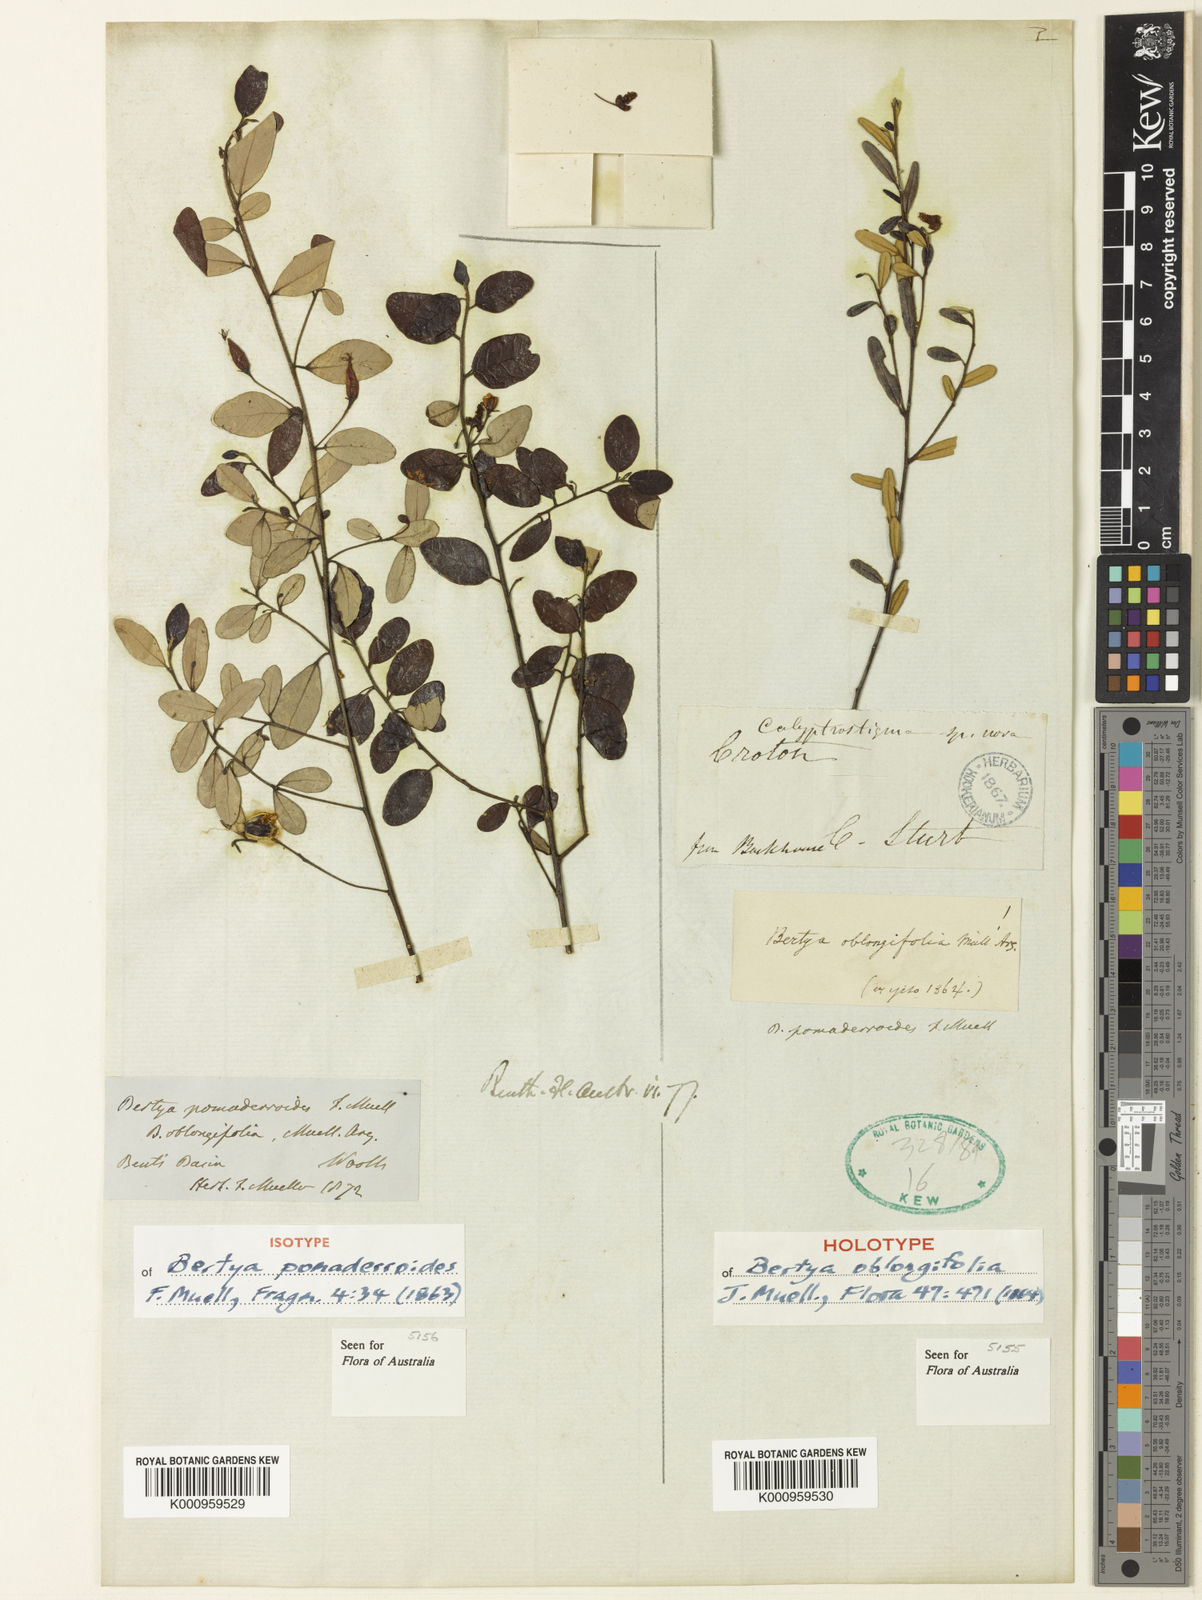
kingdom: Plantae
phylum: Tracheophyta
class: Magnoliopsida
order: Malpighiales
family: Euphorbiaceae
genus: Bertya
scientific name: Bertya pomaderrioides
